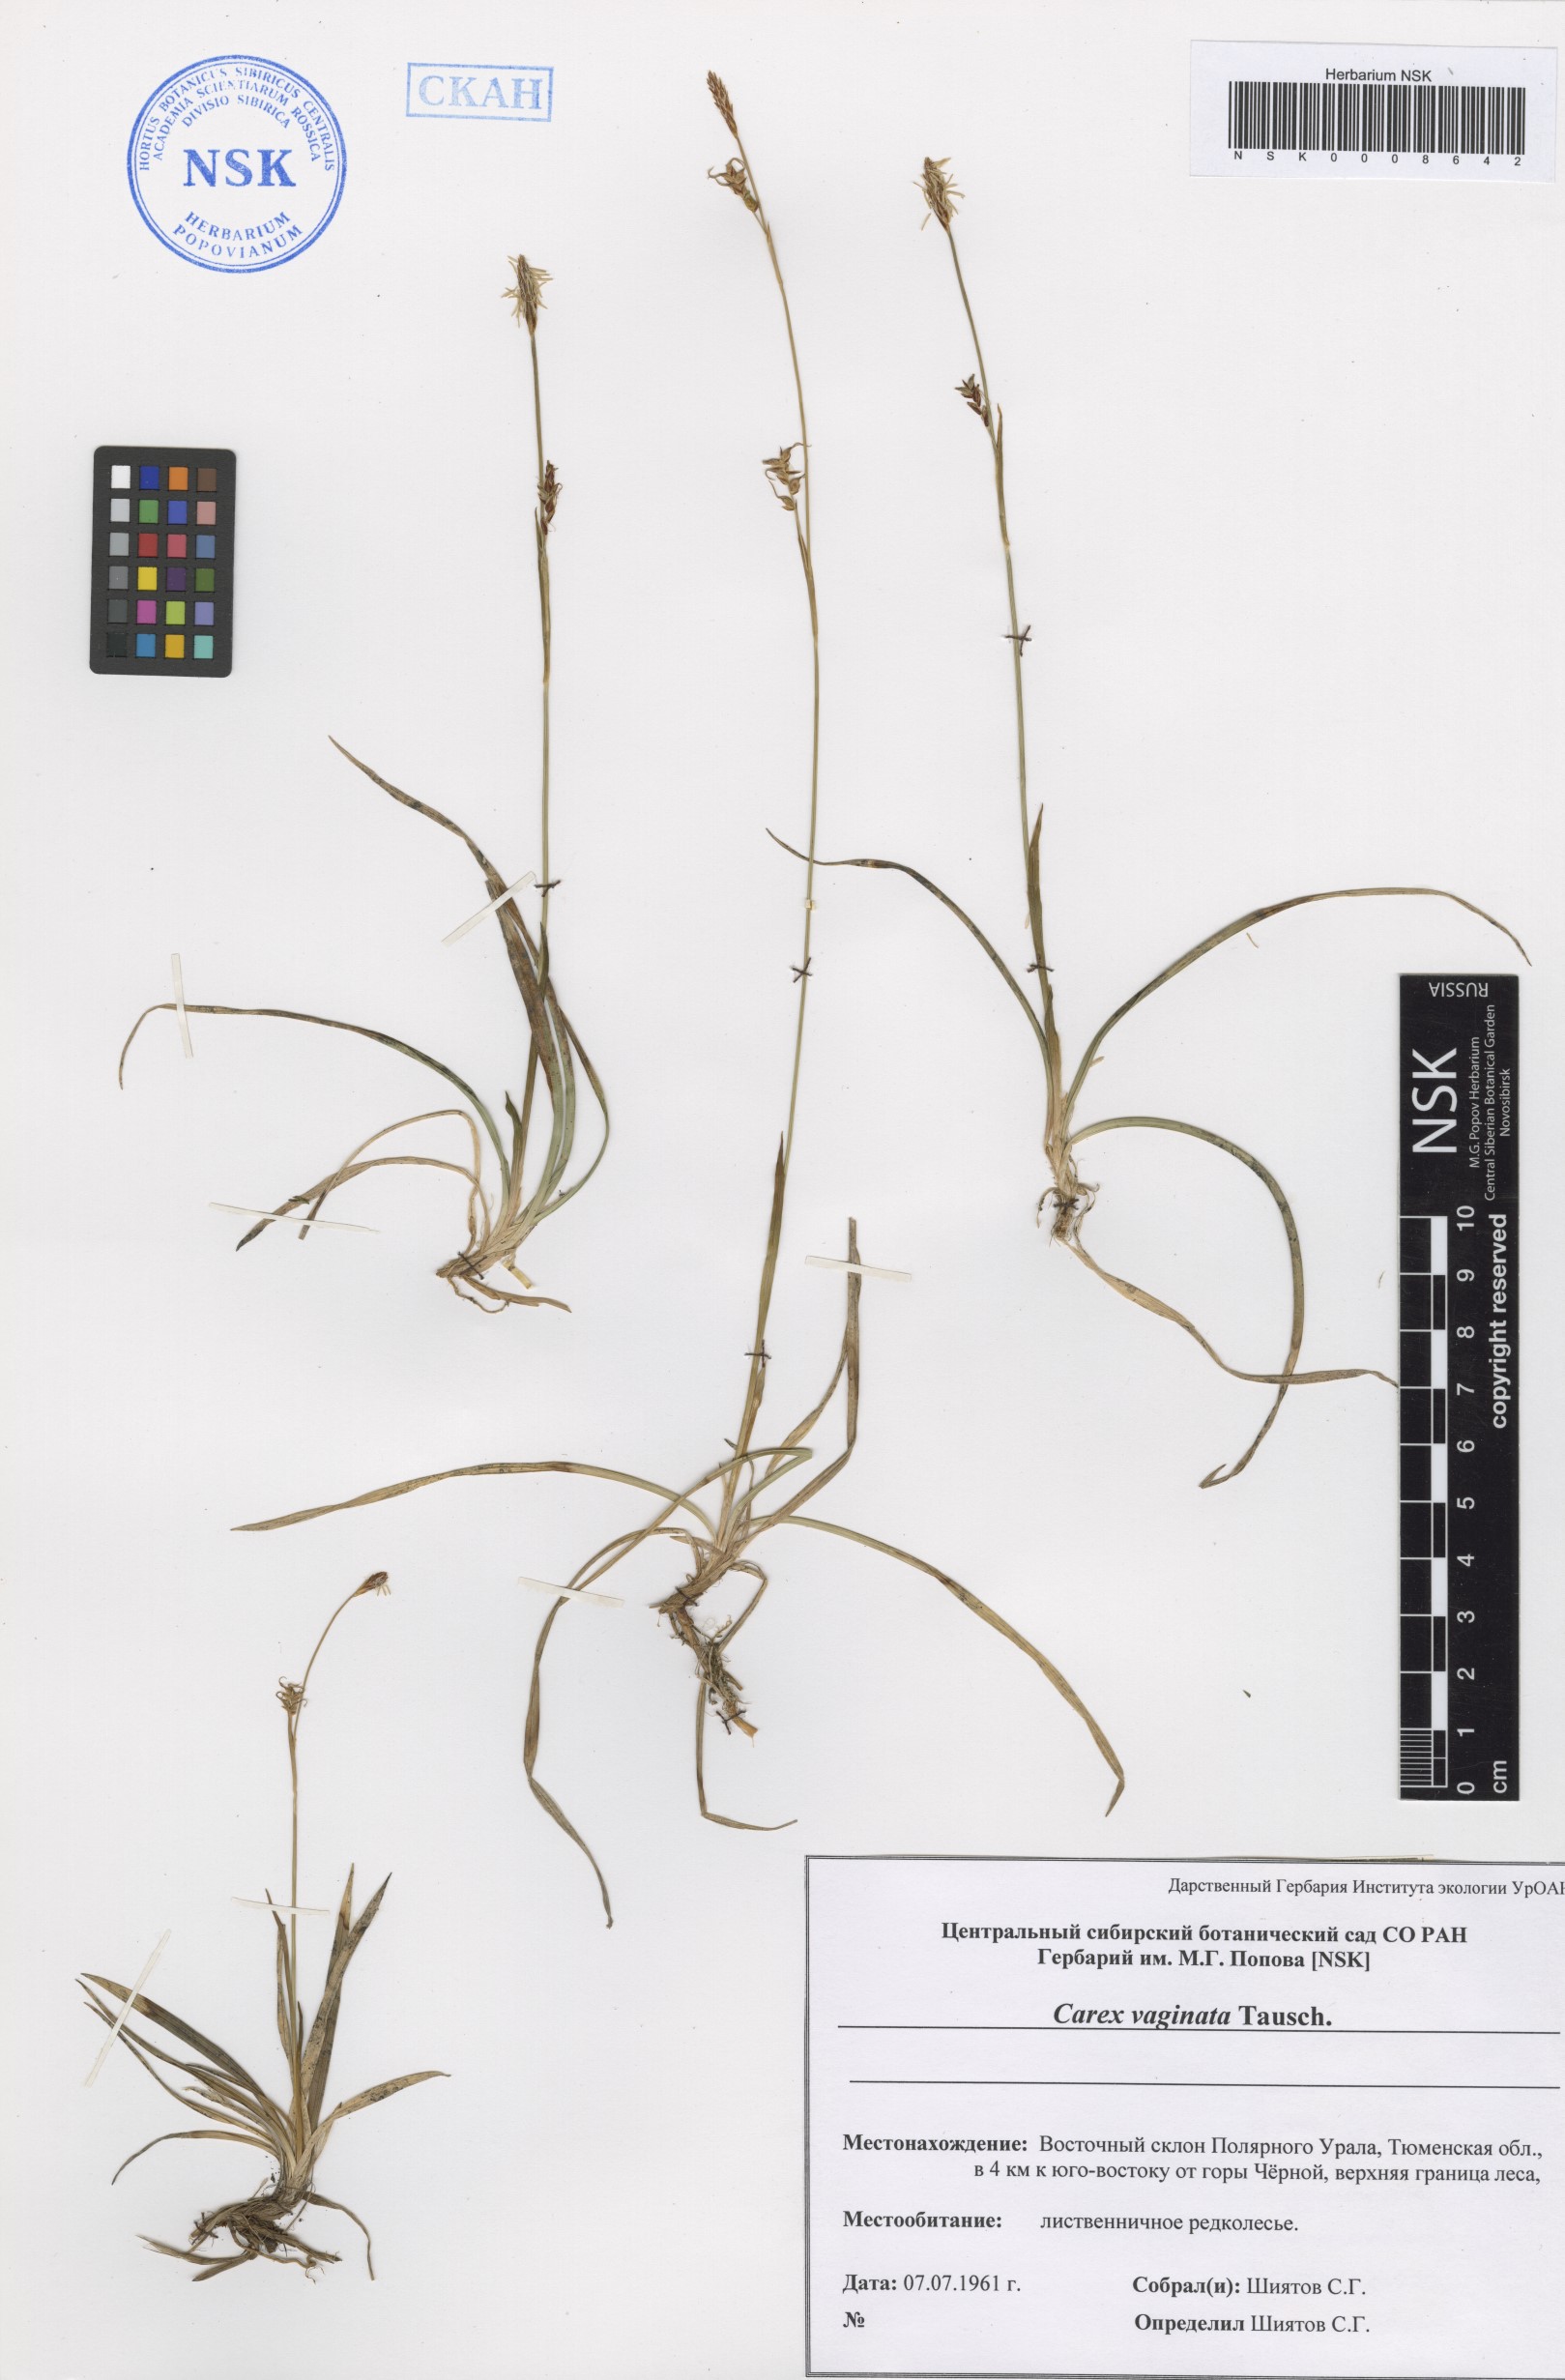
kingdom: Plantae
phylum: Tracheophyta
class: Liliopsida
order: Poales
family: Cyperaceae
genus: Carex
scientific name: Carex vaginata
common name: Sheathed sedge
